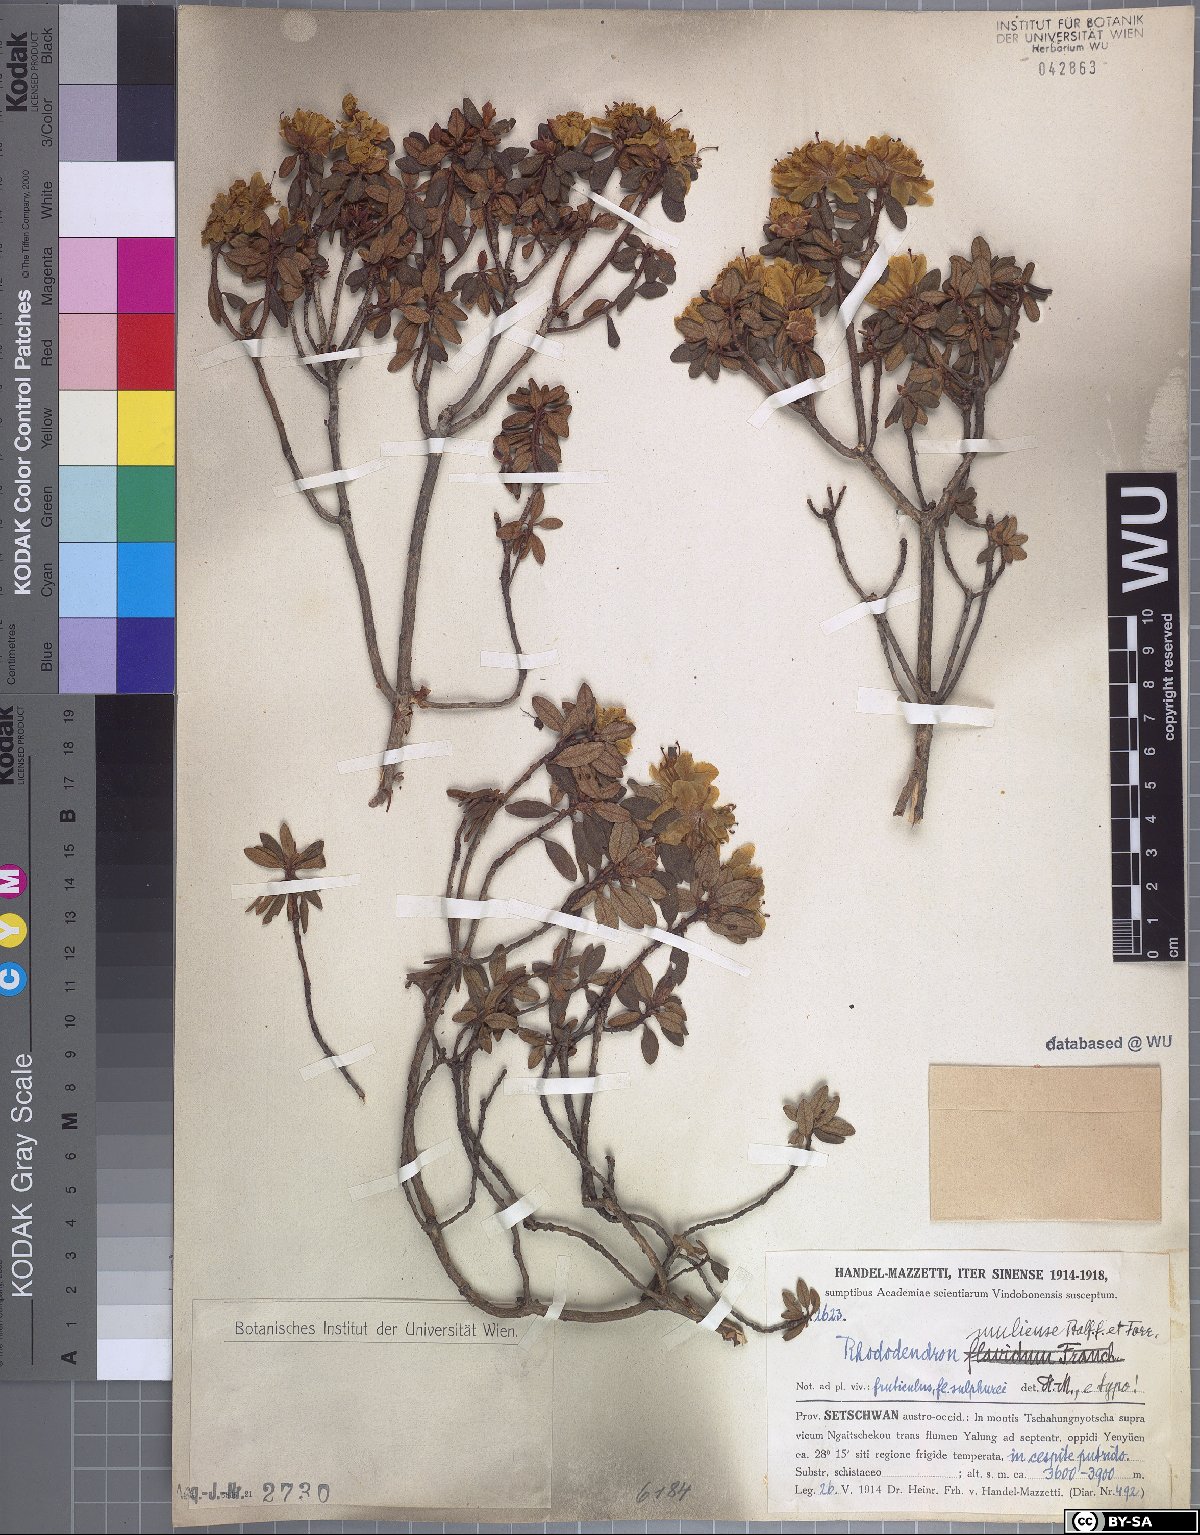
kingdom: Plantae
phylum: Tracheophyta
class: Magnoliopsida
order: Ericales
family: Ericaceae
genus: Rhododendron
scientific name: Rhododendron rupicola
